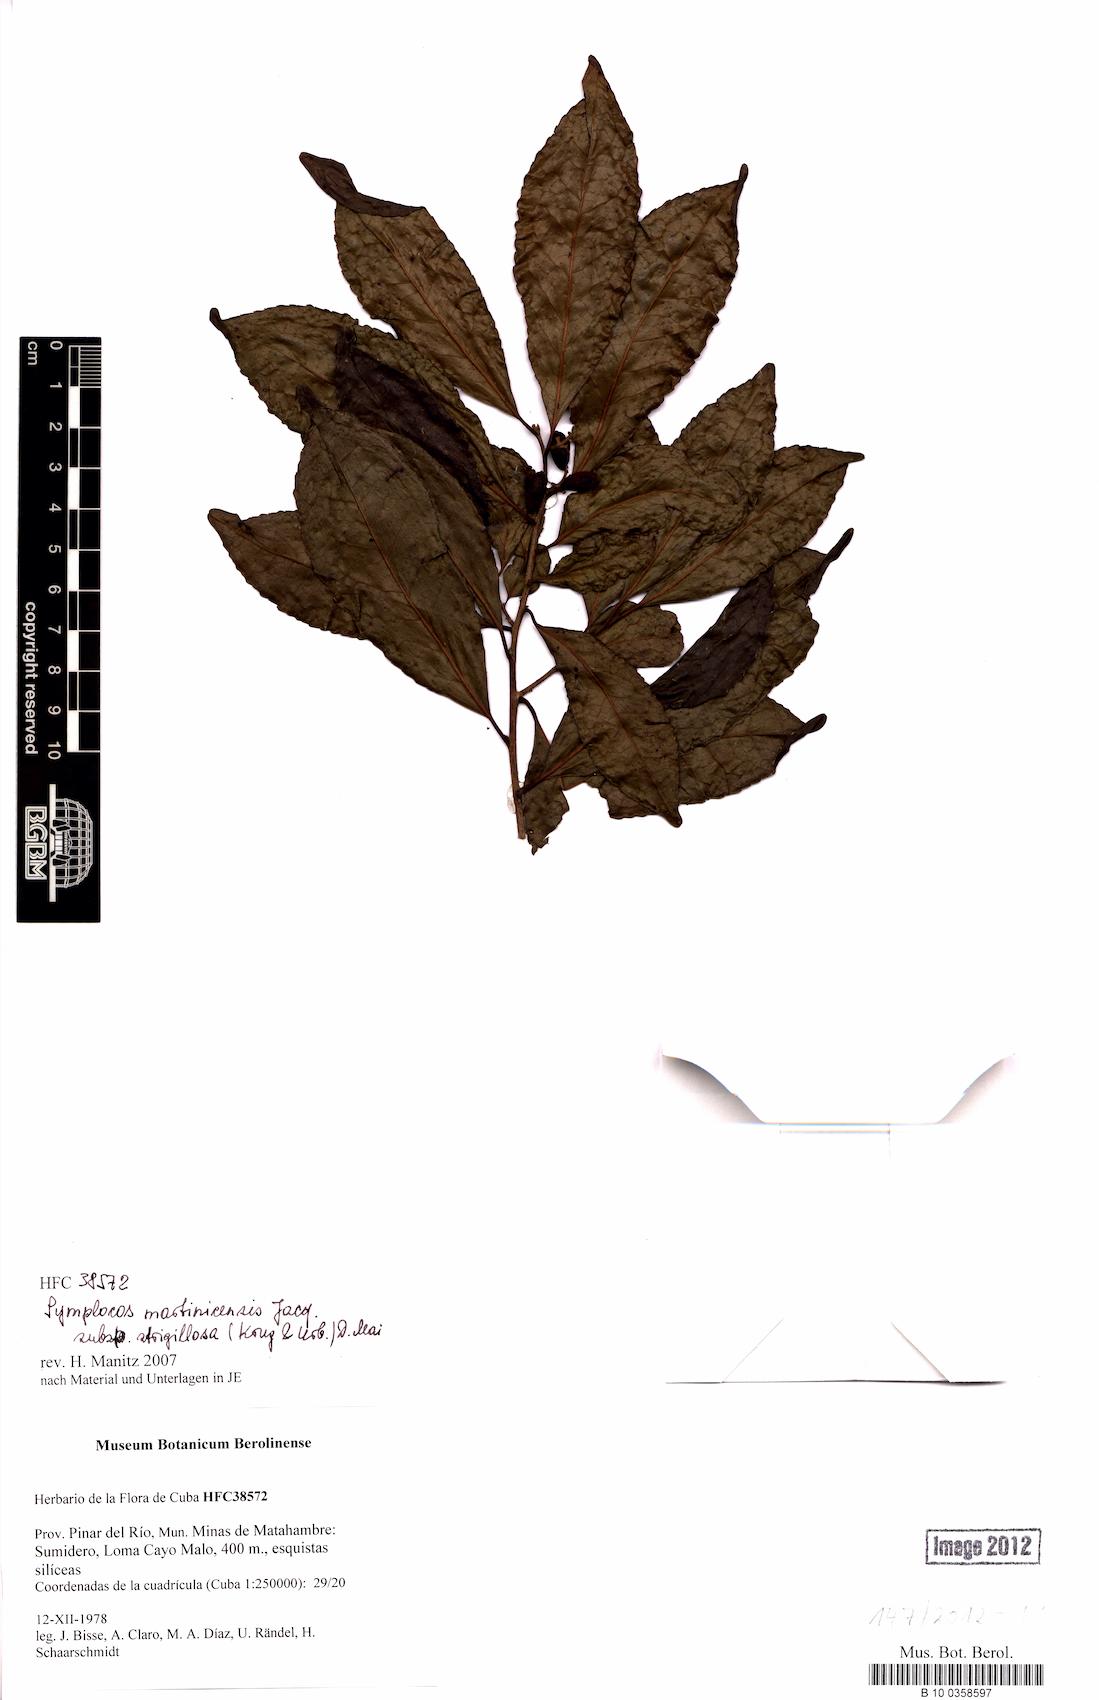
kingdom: Plantae
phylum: Tracheophyta
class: Magnoliopsida
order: Ericales
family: Symplocaceae
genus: Symplocos
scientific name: Symplocos jurgensenii
